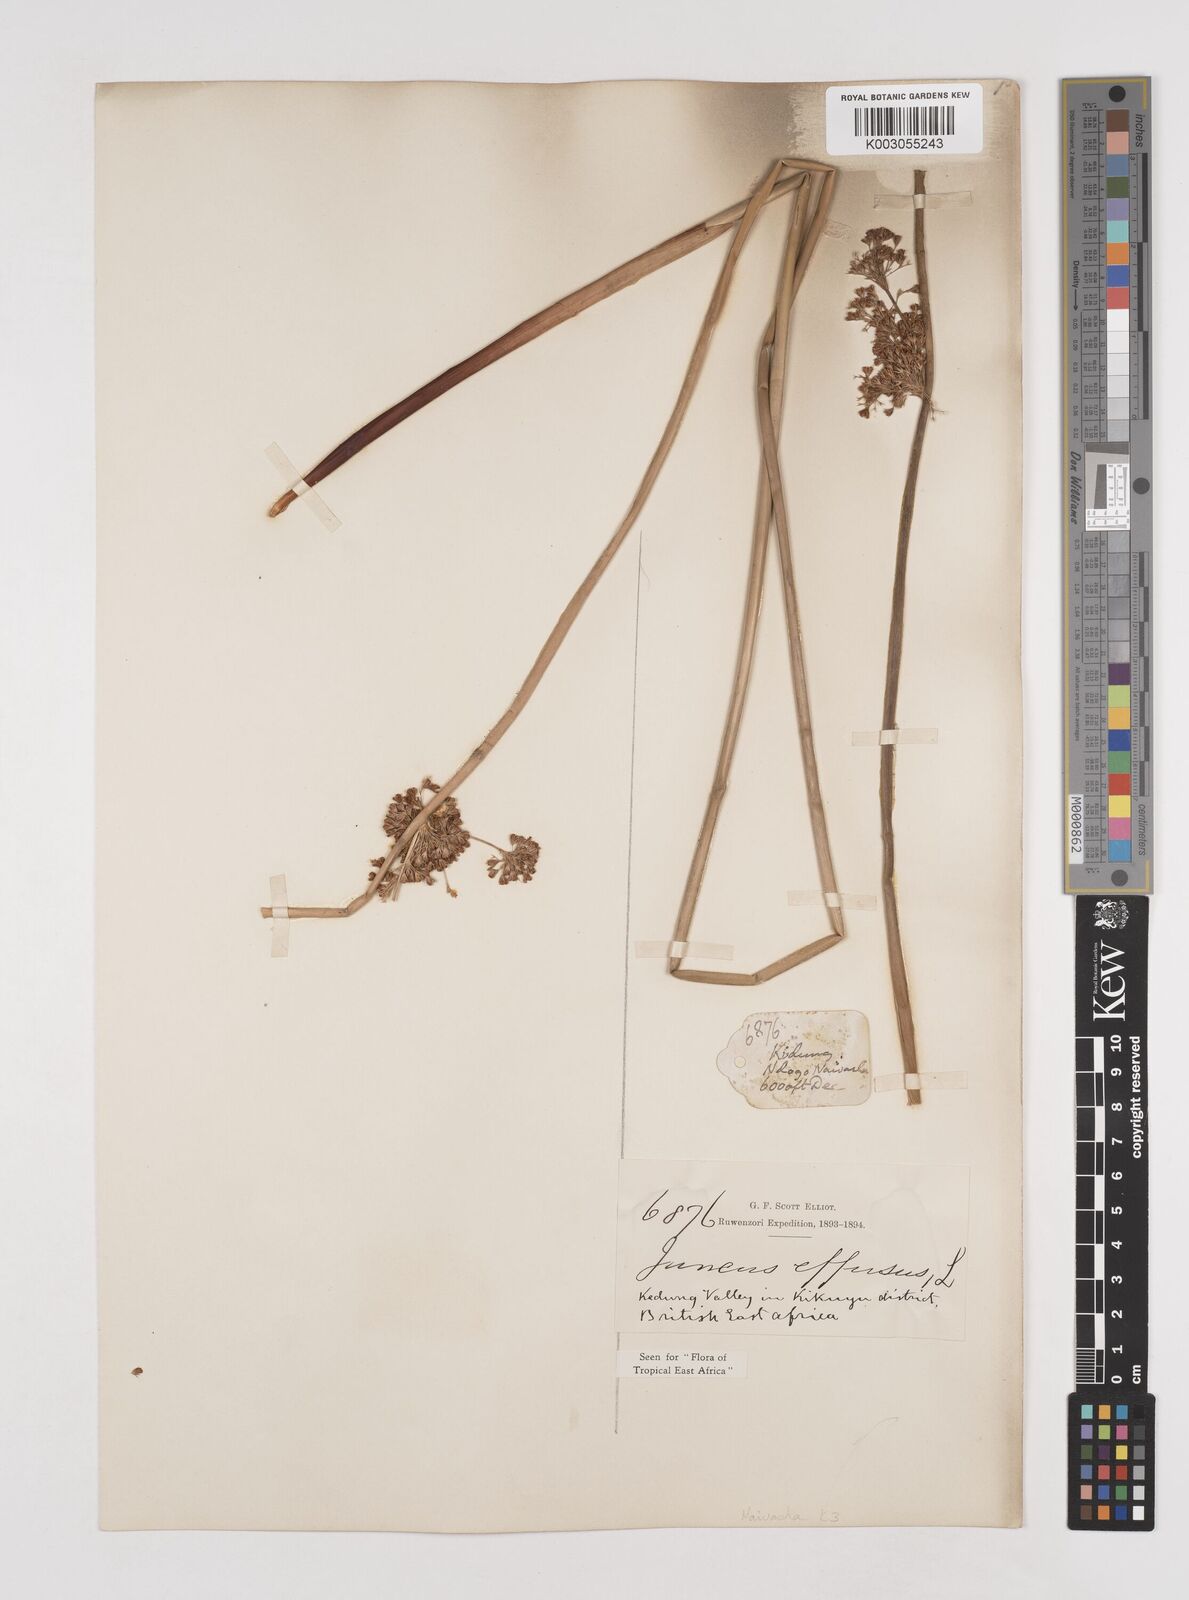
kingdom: Plantae
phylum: Tracheophyta
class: Liliopsida
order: Poales
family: Juncaceae
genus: Juncus
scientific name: Juncus effusus
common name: Soft rush
